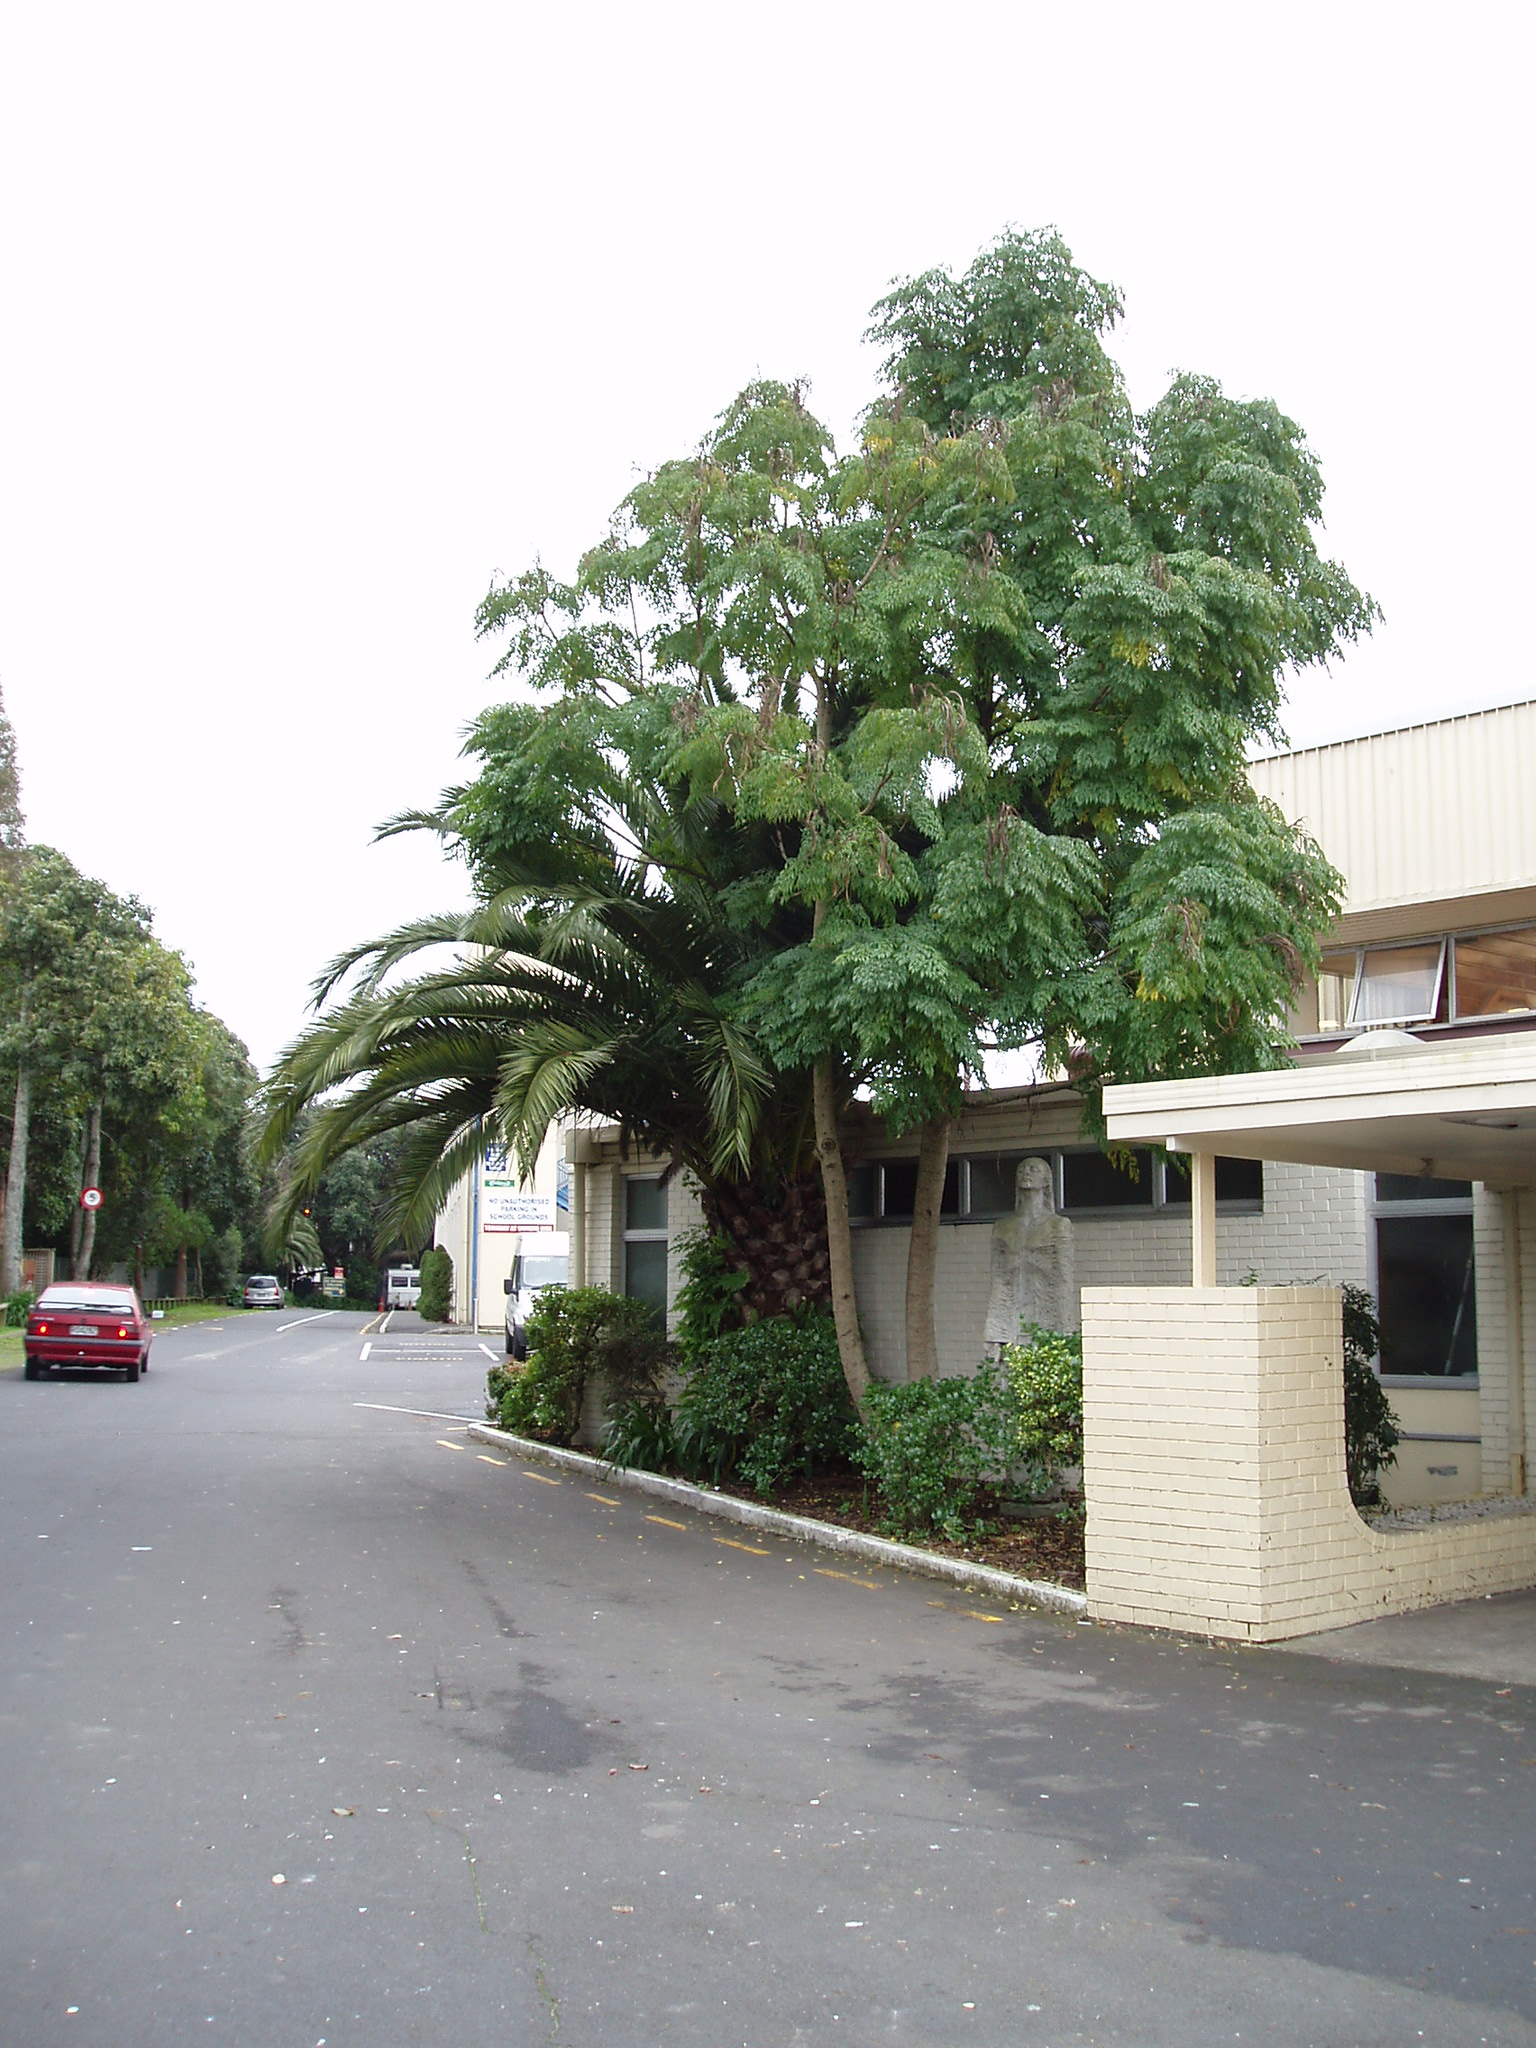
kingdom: Plantae
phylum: Tracheophyta
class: Magnoliopsida
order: Lamiales
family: Bignoniaceae
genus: Radermachera
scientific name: Radermachera sinica
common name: China doll plant
